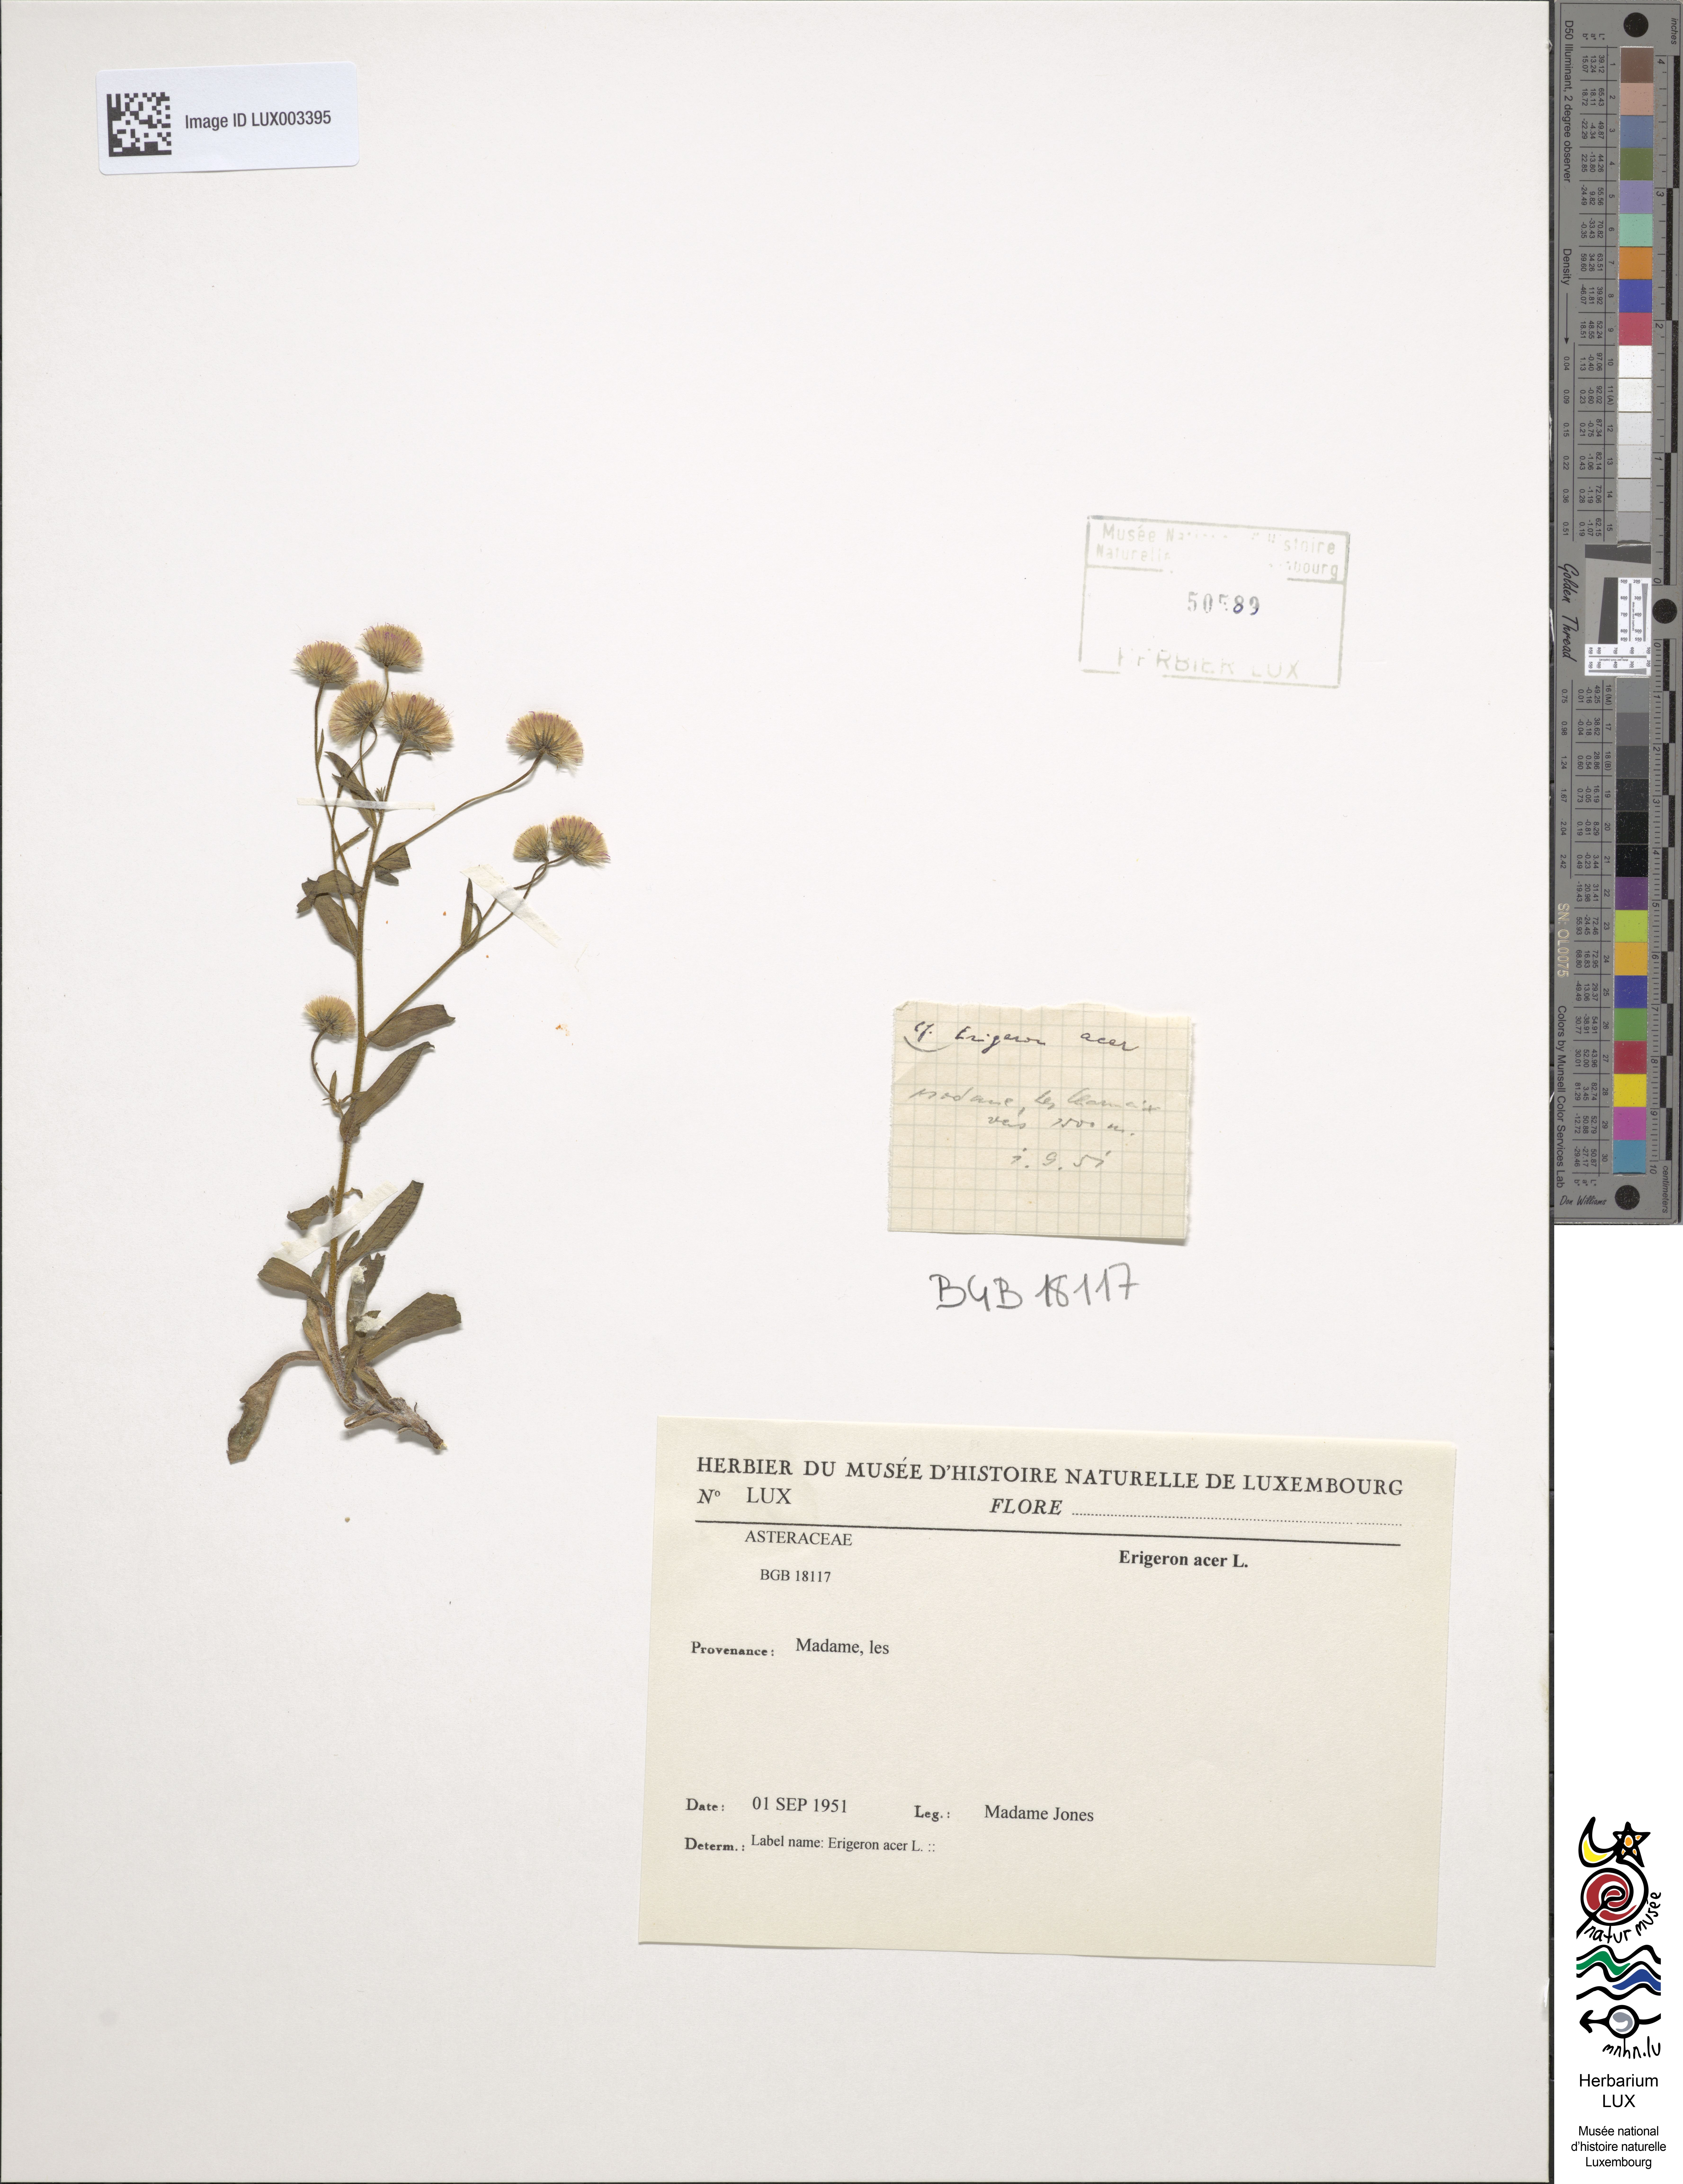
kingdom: Plantae
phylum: Tracheophyta
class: Magnoliopsida
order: Asterales
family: Asteraceae
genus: Erigeron
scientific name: Erigeron acer
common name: Blue fleabane
